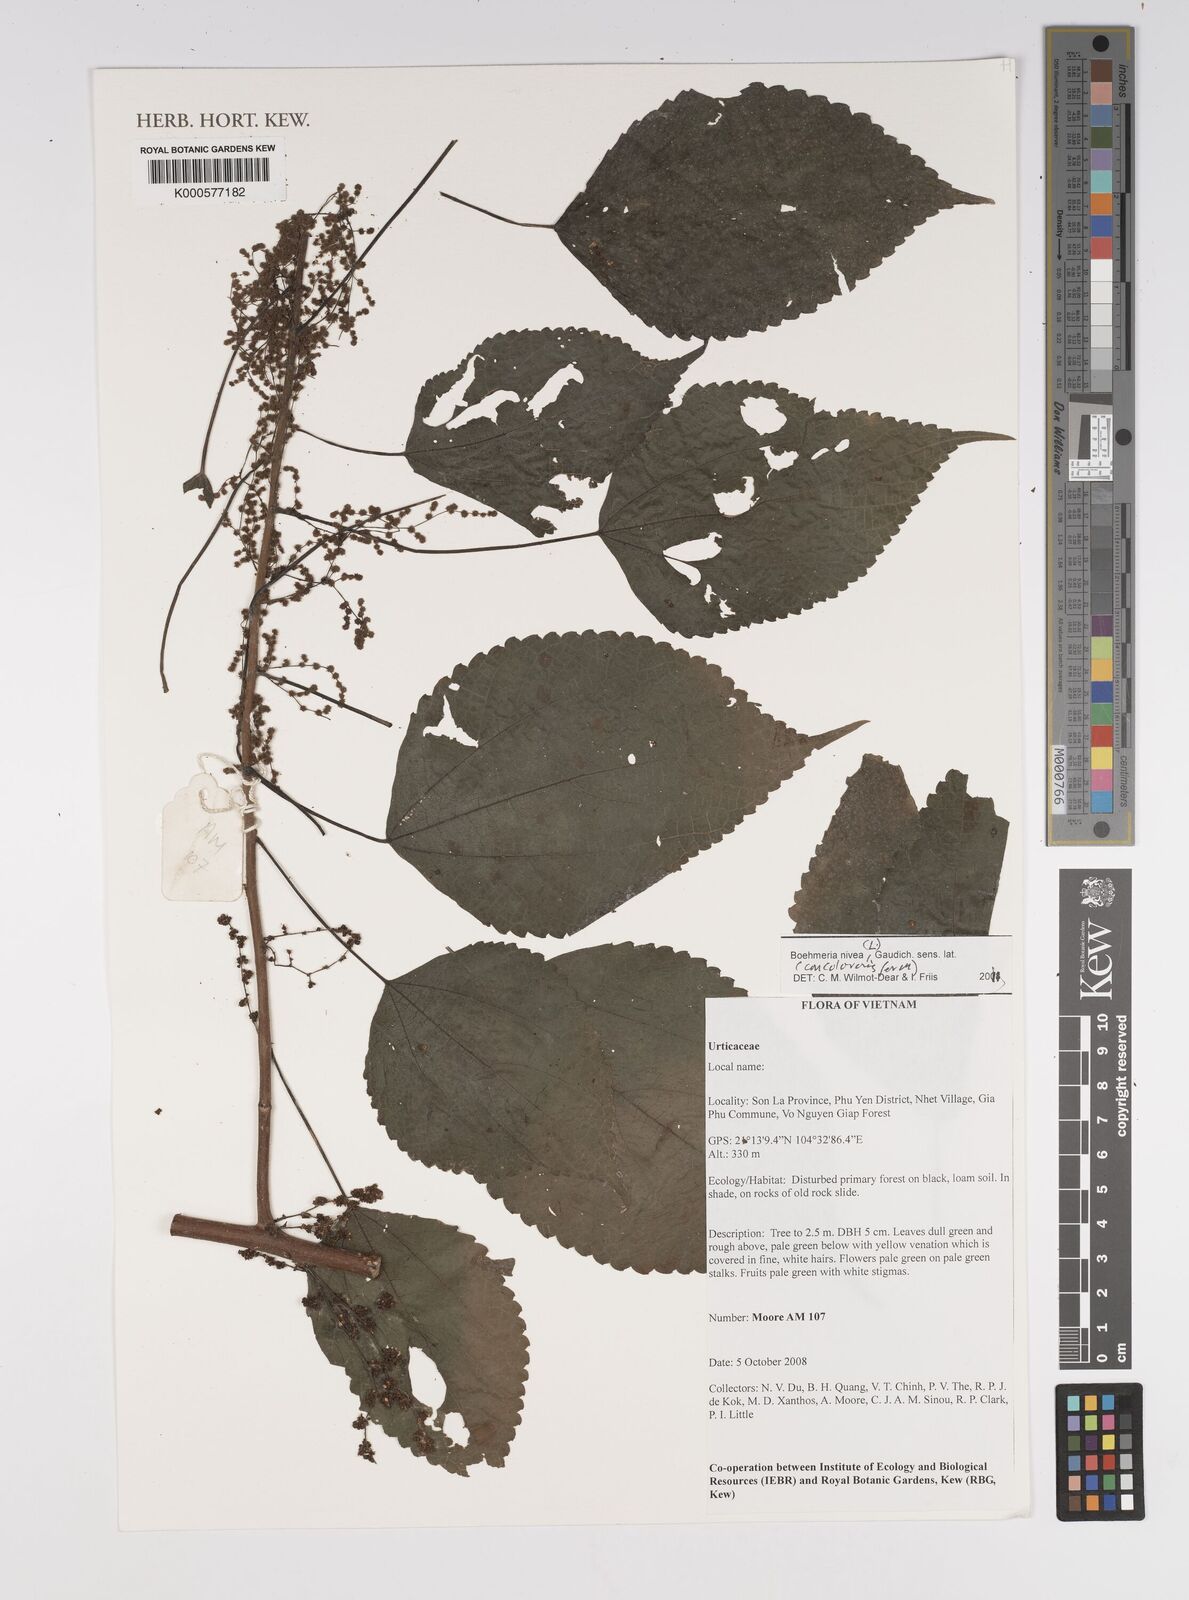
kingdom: Plantae
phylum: Tracheophyta
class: Magnoliopsida
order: Rosales
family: Urticaceae
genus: Boehmeria
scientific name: Boehmeria nivea
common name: Ramie chinese grass
